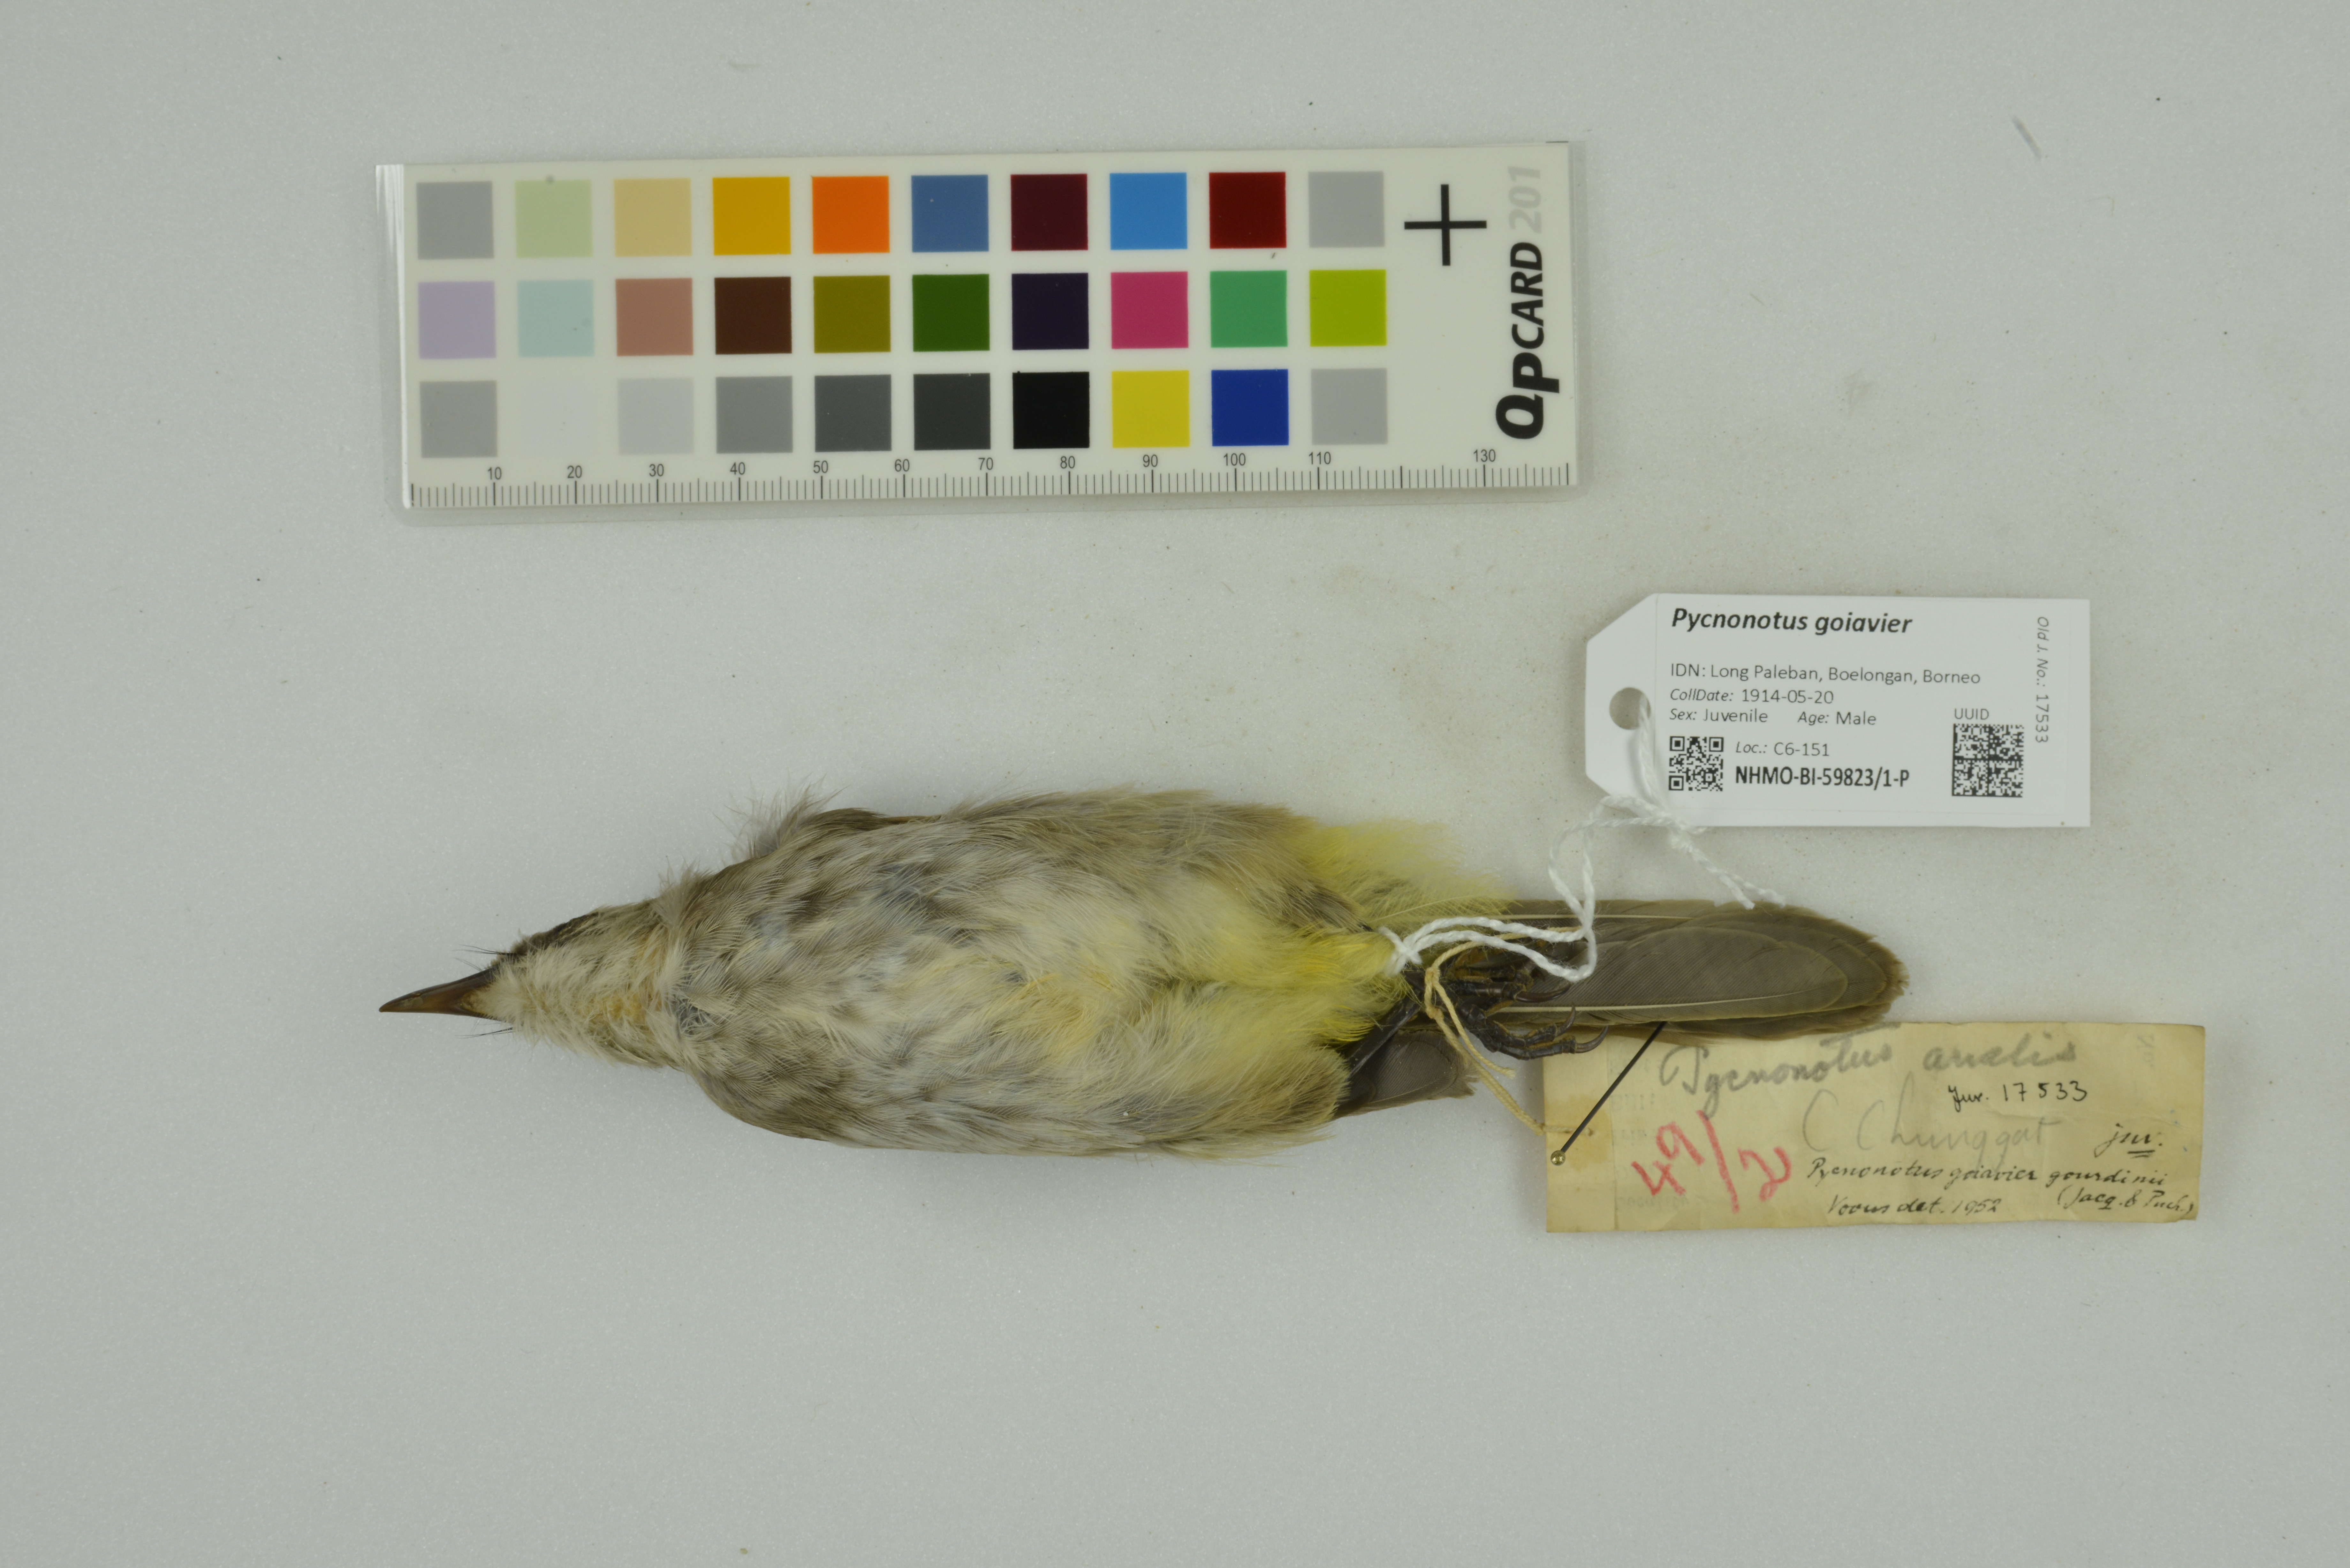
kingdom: Animalia
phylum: Chordata
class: Aves
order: Passeriformes
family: Pycnonotidae
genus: Pycnonotus
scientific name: Pycnonotus goiavier
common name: Yellow-vented bulbul
